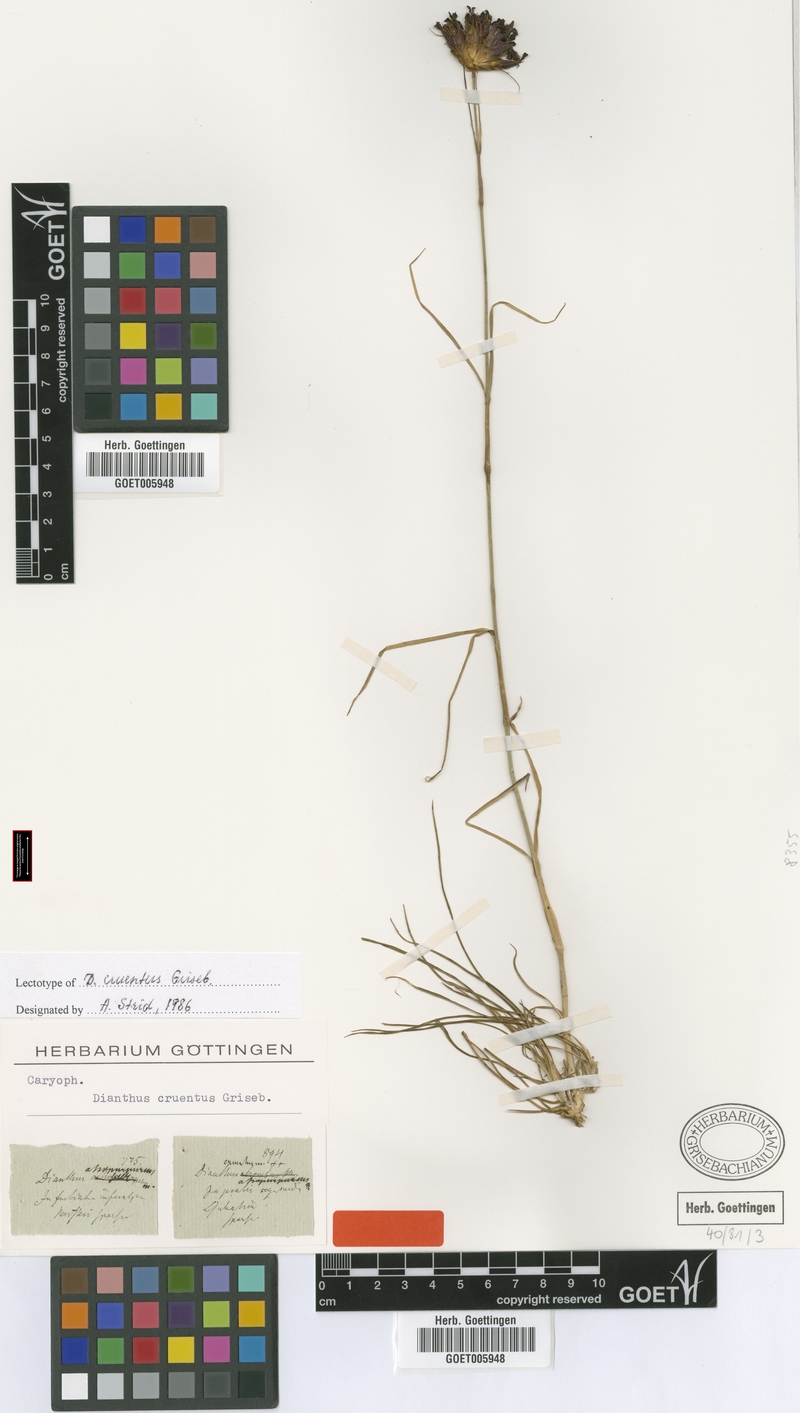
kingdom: Plantae
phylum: Tracheophyta
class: Magnoliopsida
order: Caryophyllales
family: Caryophyllaceae
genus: Dianthus
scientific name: Dianthus cruentus
